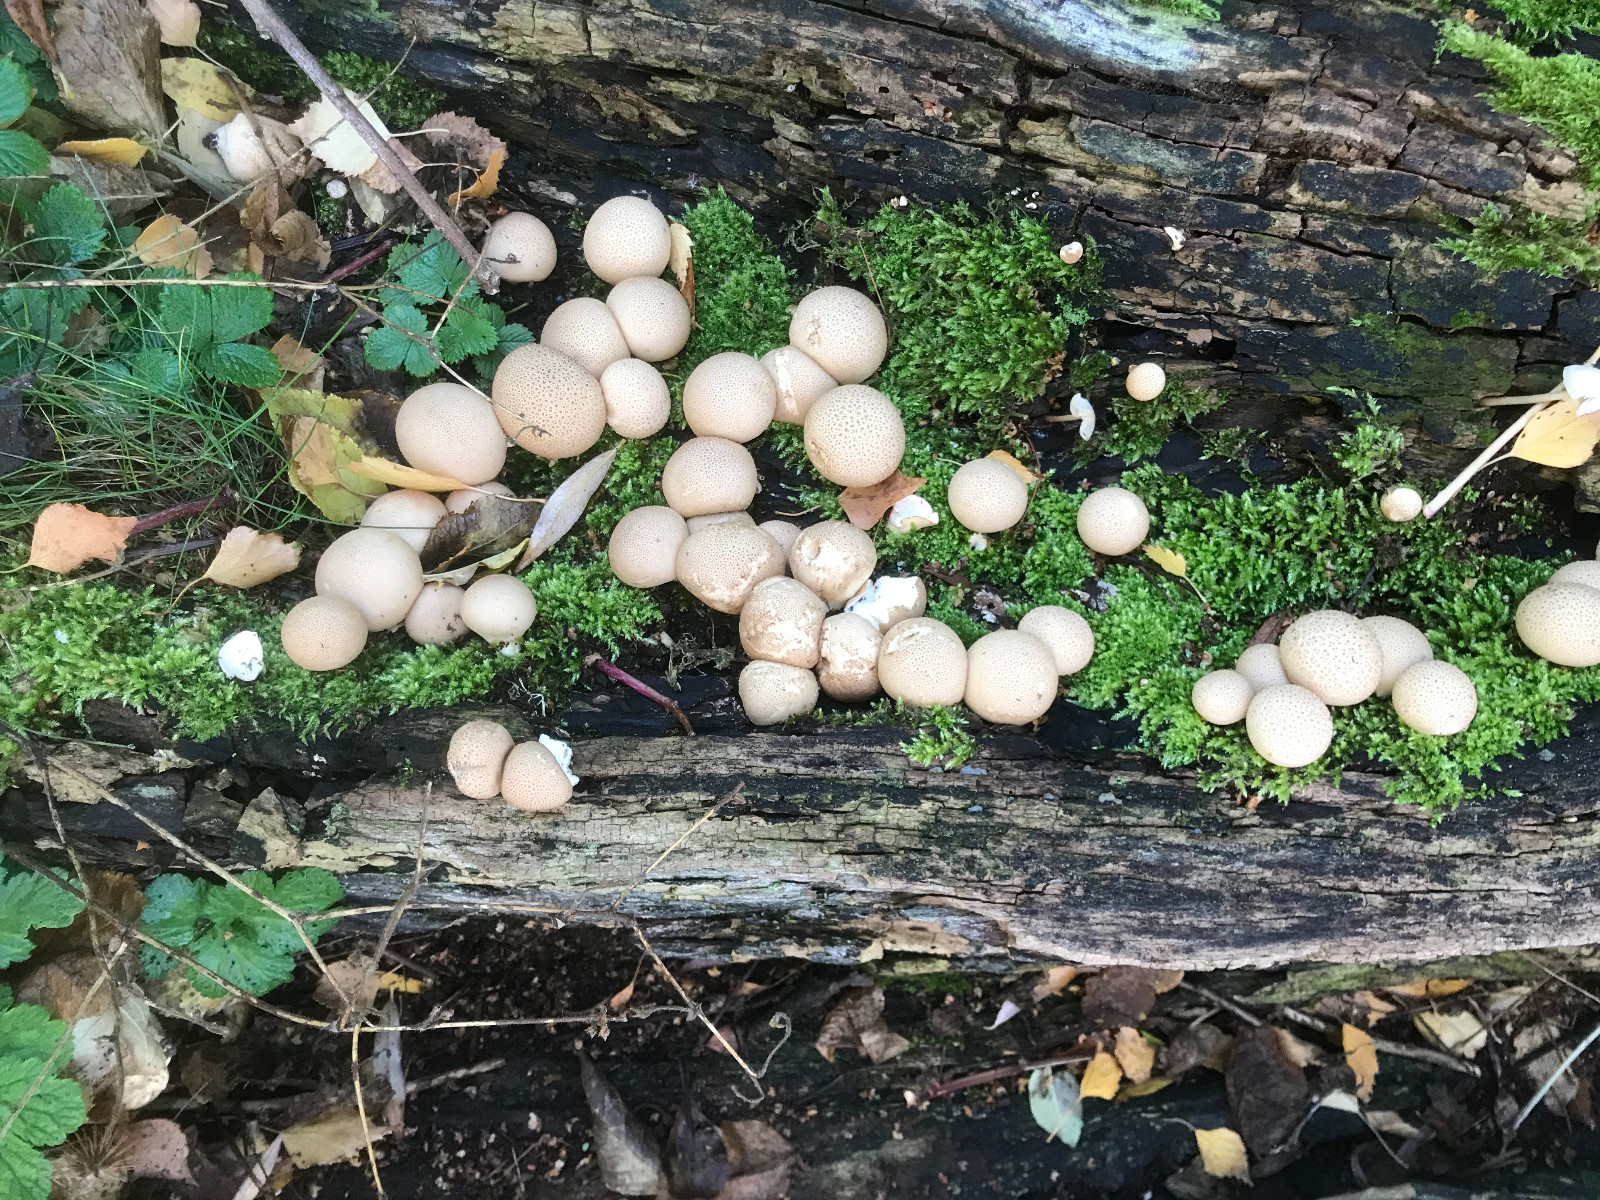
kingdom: Fungi
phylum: Basidiomycota
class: Agaricomycetes
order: Agaricales
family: Lycoperdaceae
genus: Apioperdon
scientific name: Apioperdon pyriforme
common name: pære-støvbold
